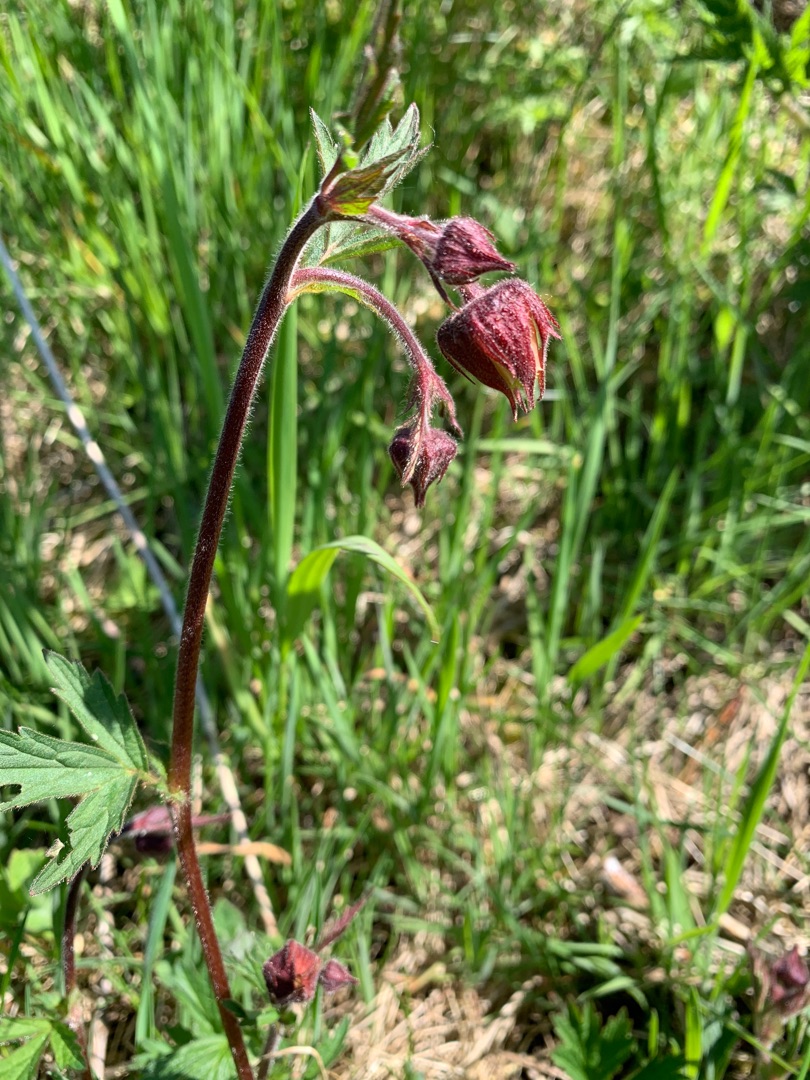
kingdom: Plantae
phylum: Tracheophyta
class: Magnoliopsida
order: Rosales
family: Rosaceae
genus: Geum
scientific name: Geum rivale
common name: Eng-nellikerod
